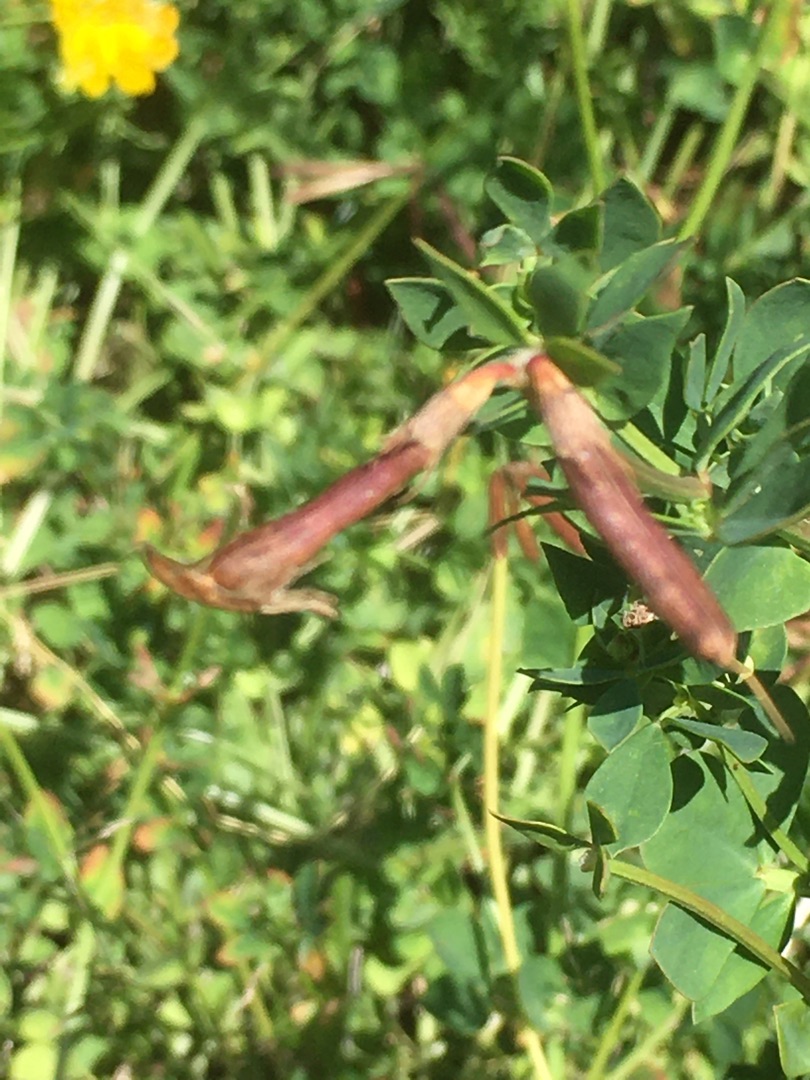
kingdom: Plantae
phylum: Tracheophyta
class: Magnoliopsida
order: Fabales
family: Fabaceae
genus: Lotus
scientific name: Lotus corniculatus
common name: Almindelig kællingetand
